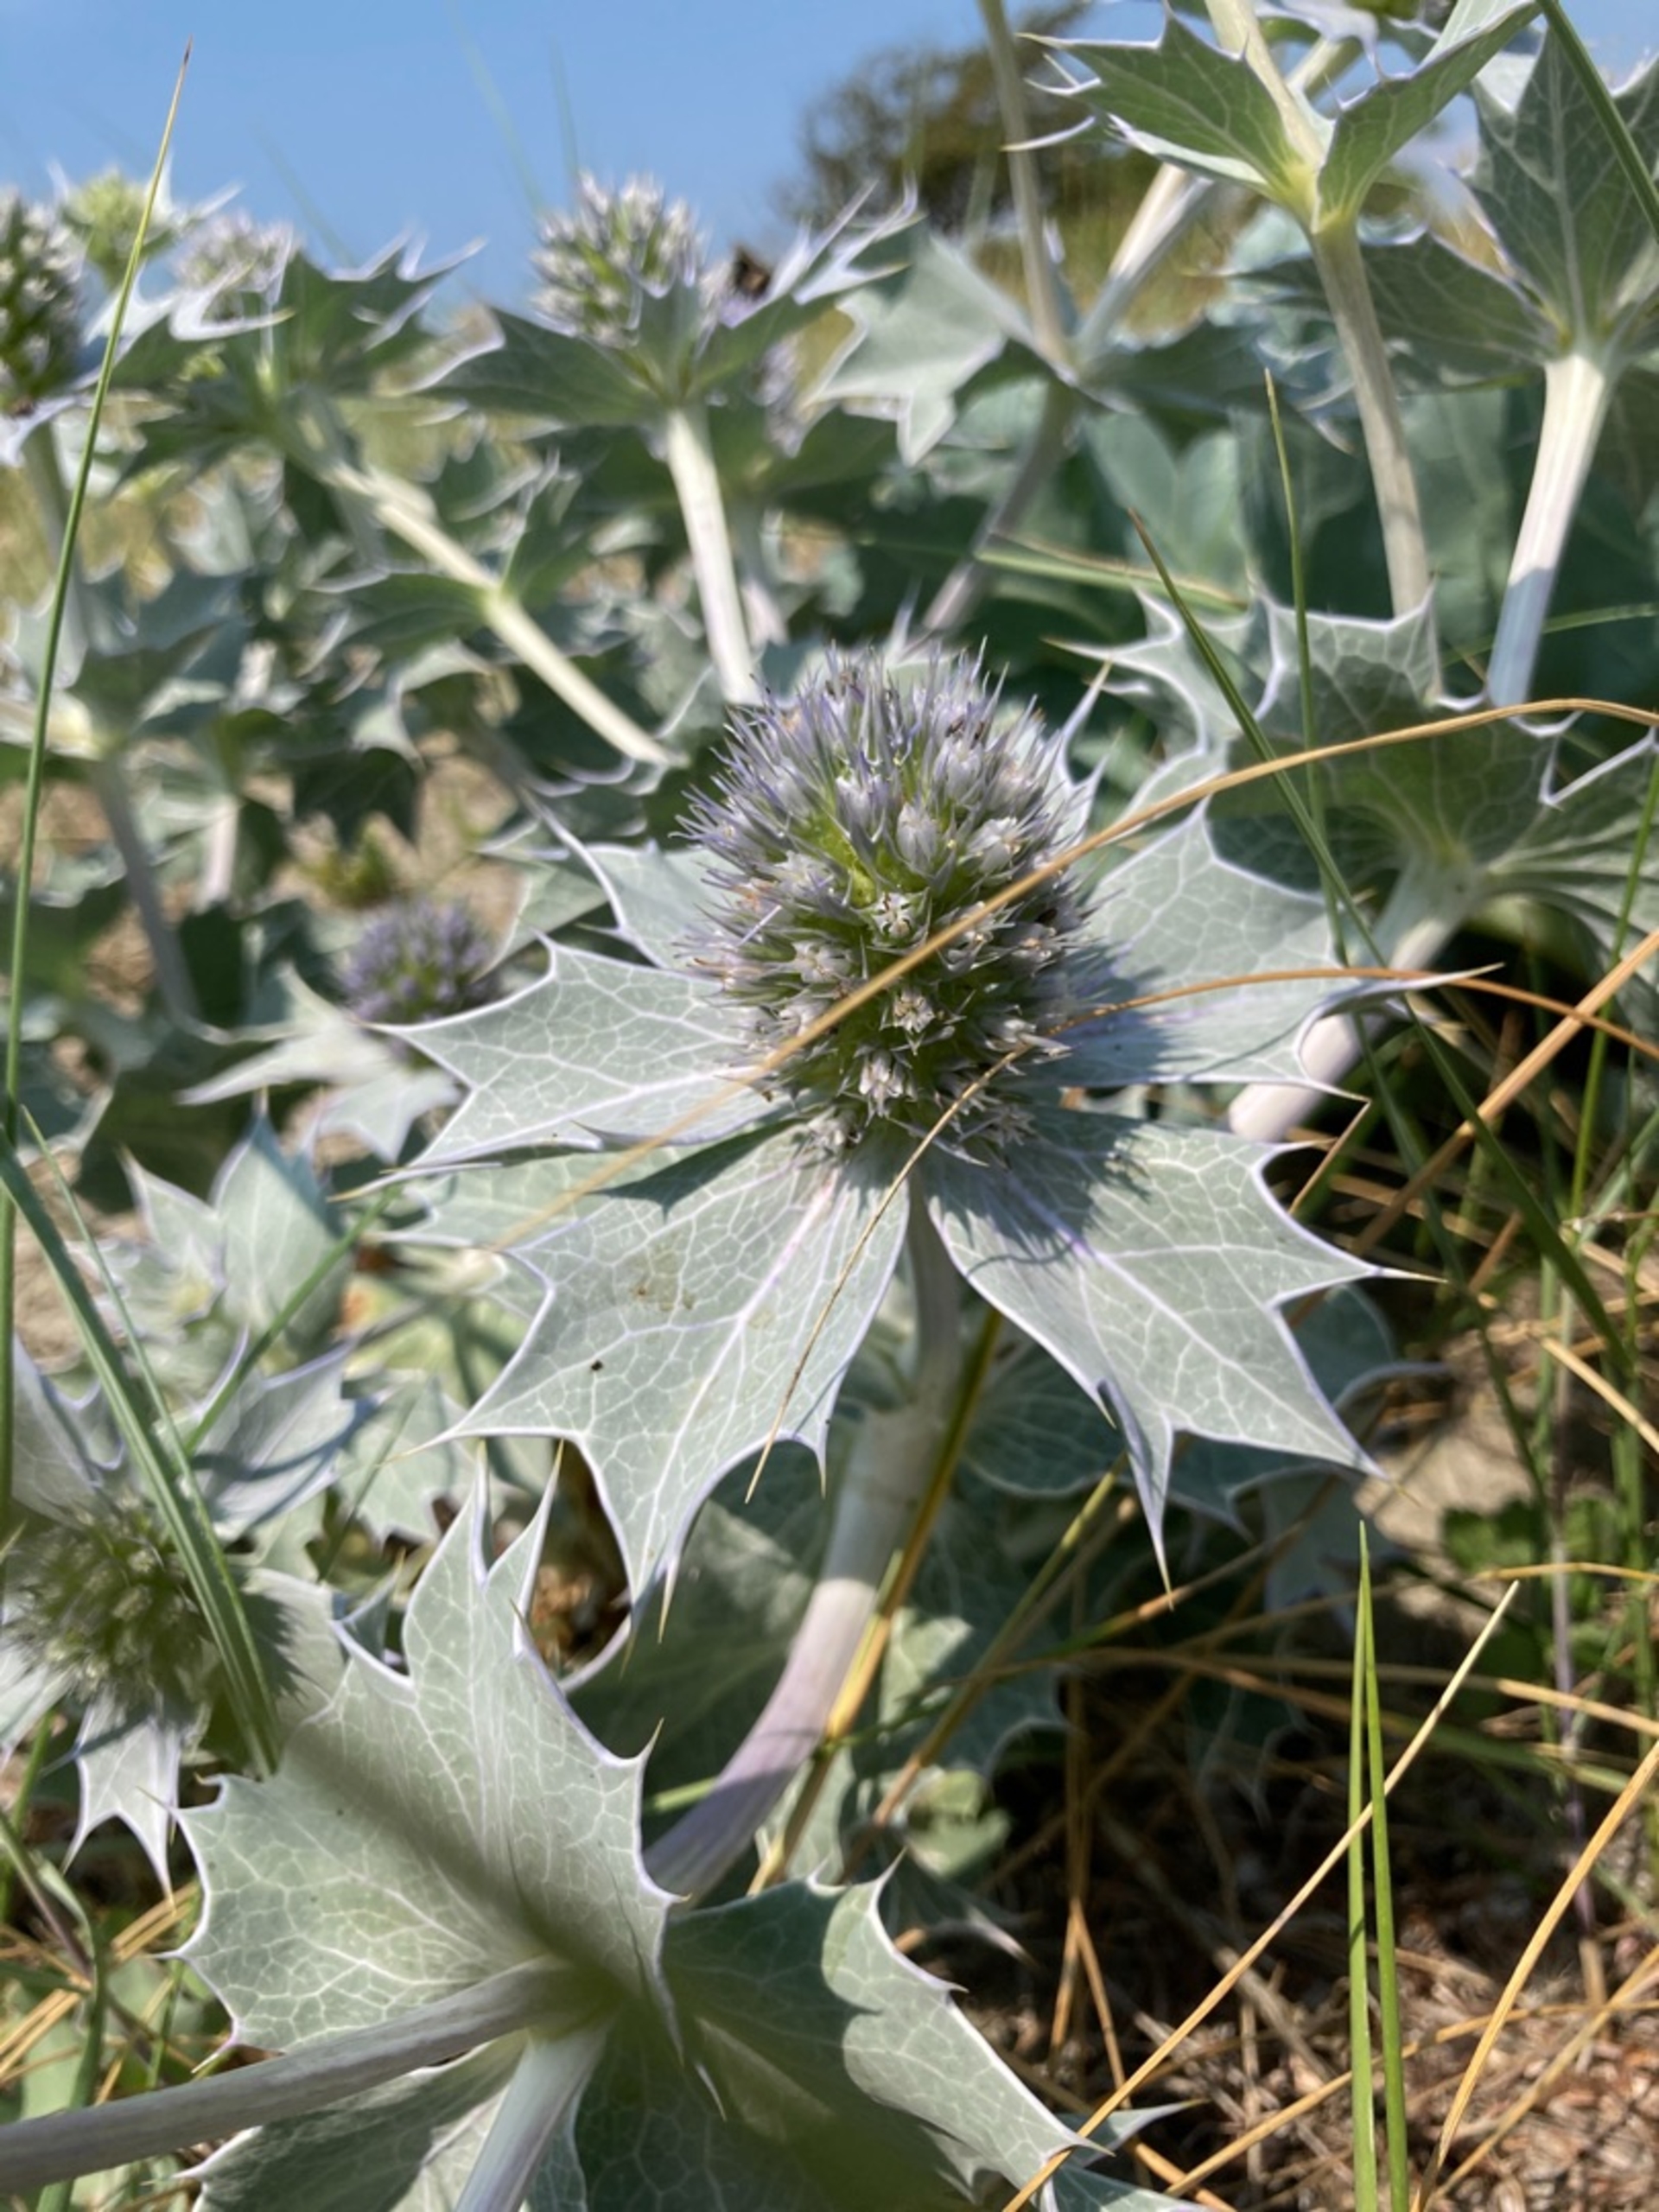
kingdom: Plantae
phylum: Tracheophyta
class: Magnoliopsida
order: Apiales
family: Apiaceae
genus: Eryngium
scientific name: Eryngium maritimum
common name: Strand-mandstro
